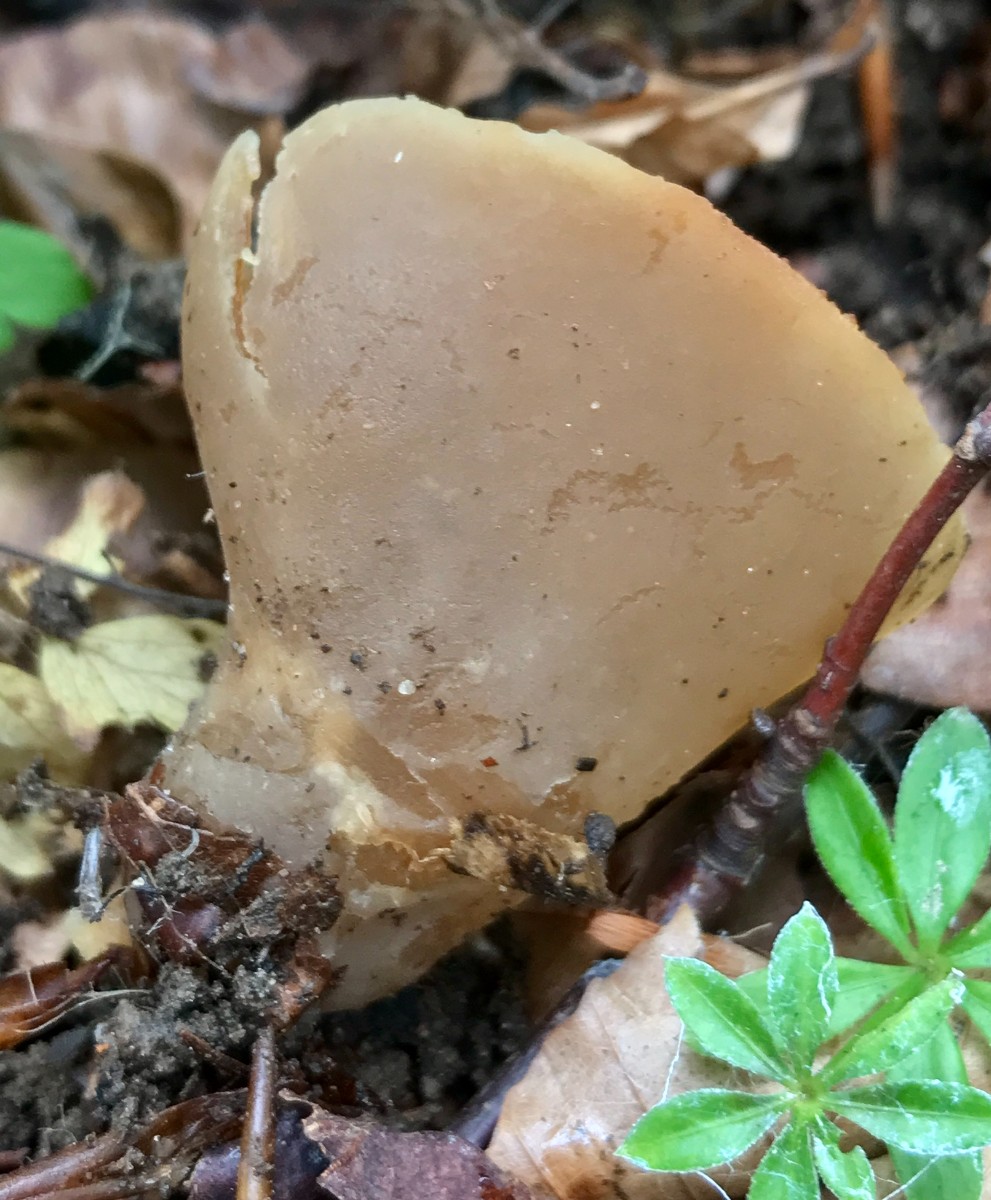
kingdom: Fungi
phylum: Ascomycota
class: Pezizomycetes
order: Pezizales
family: Pezizaceae
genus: Peziza
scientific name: Peziza
